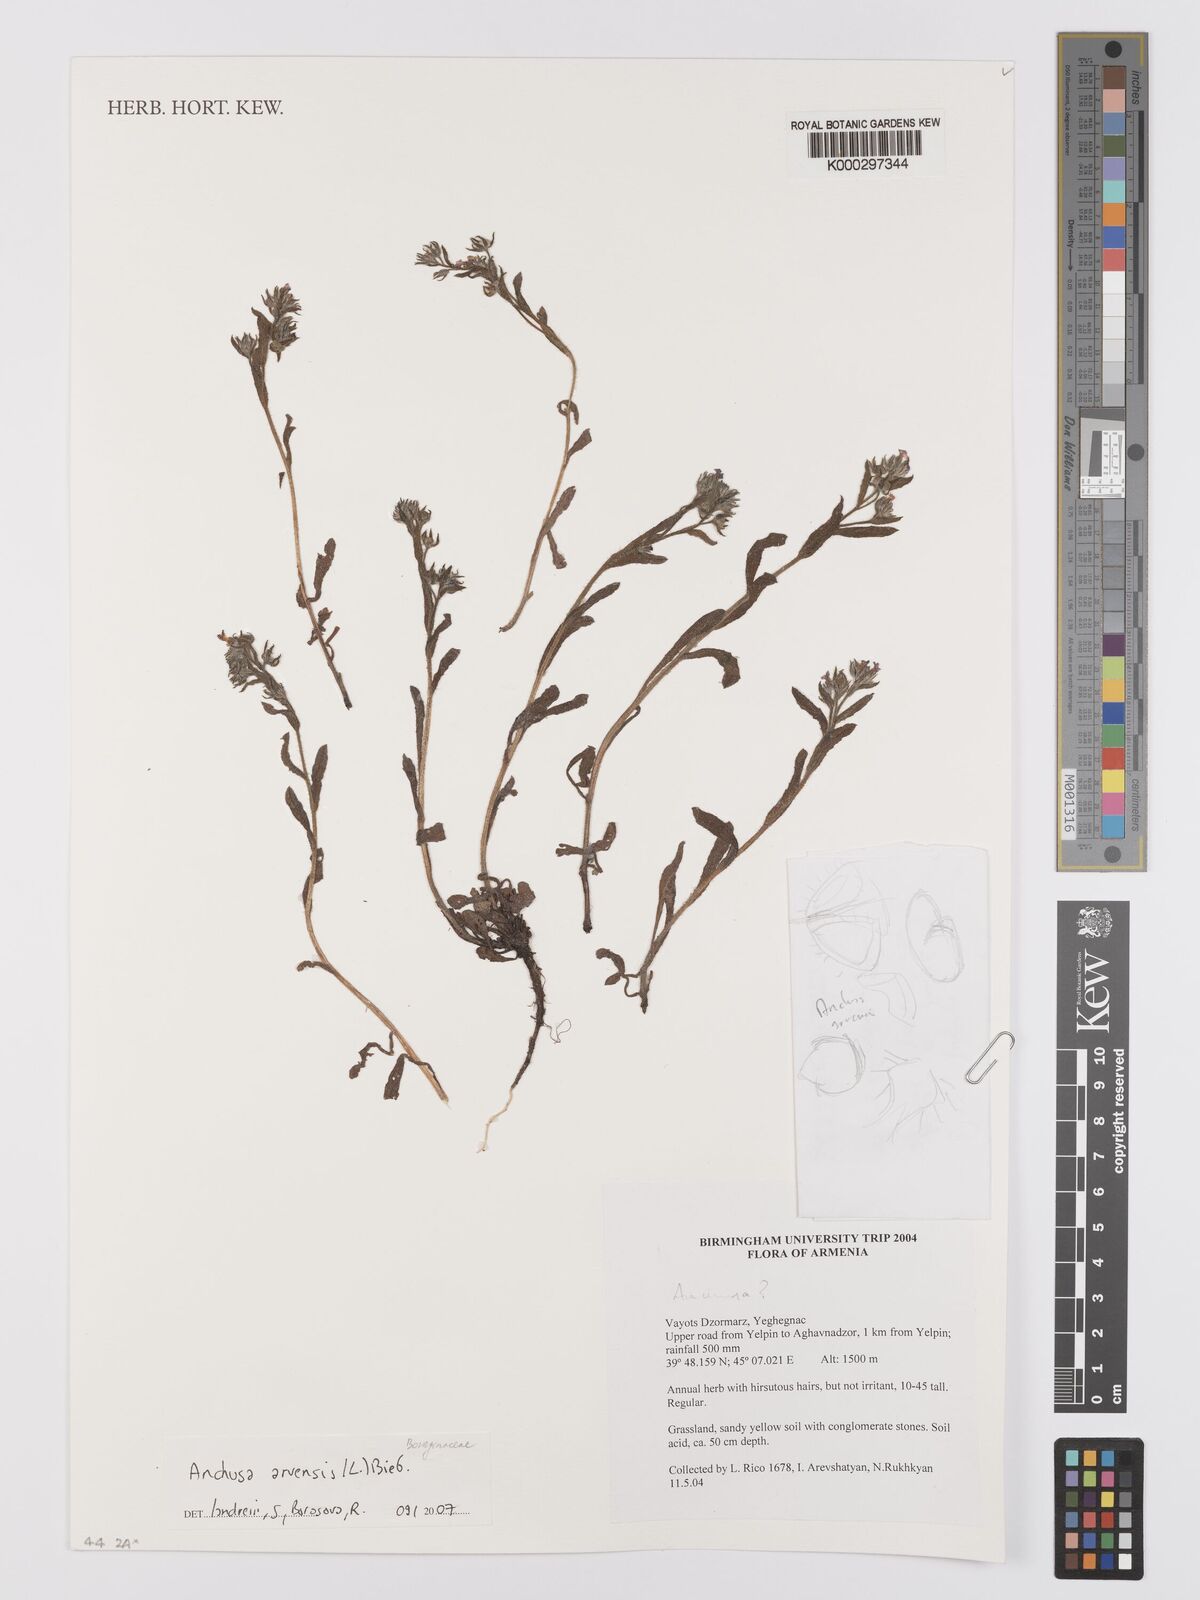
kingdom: Plantae
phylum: Tracheophyta
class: Magnoliopsida
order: Boraginales
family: Boraginaceae
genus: Lycopsis
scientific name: Lycopsis arvensis
